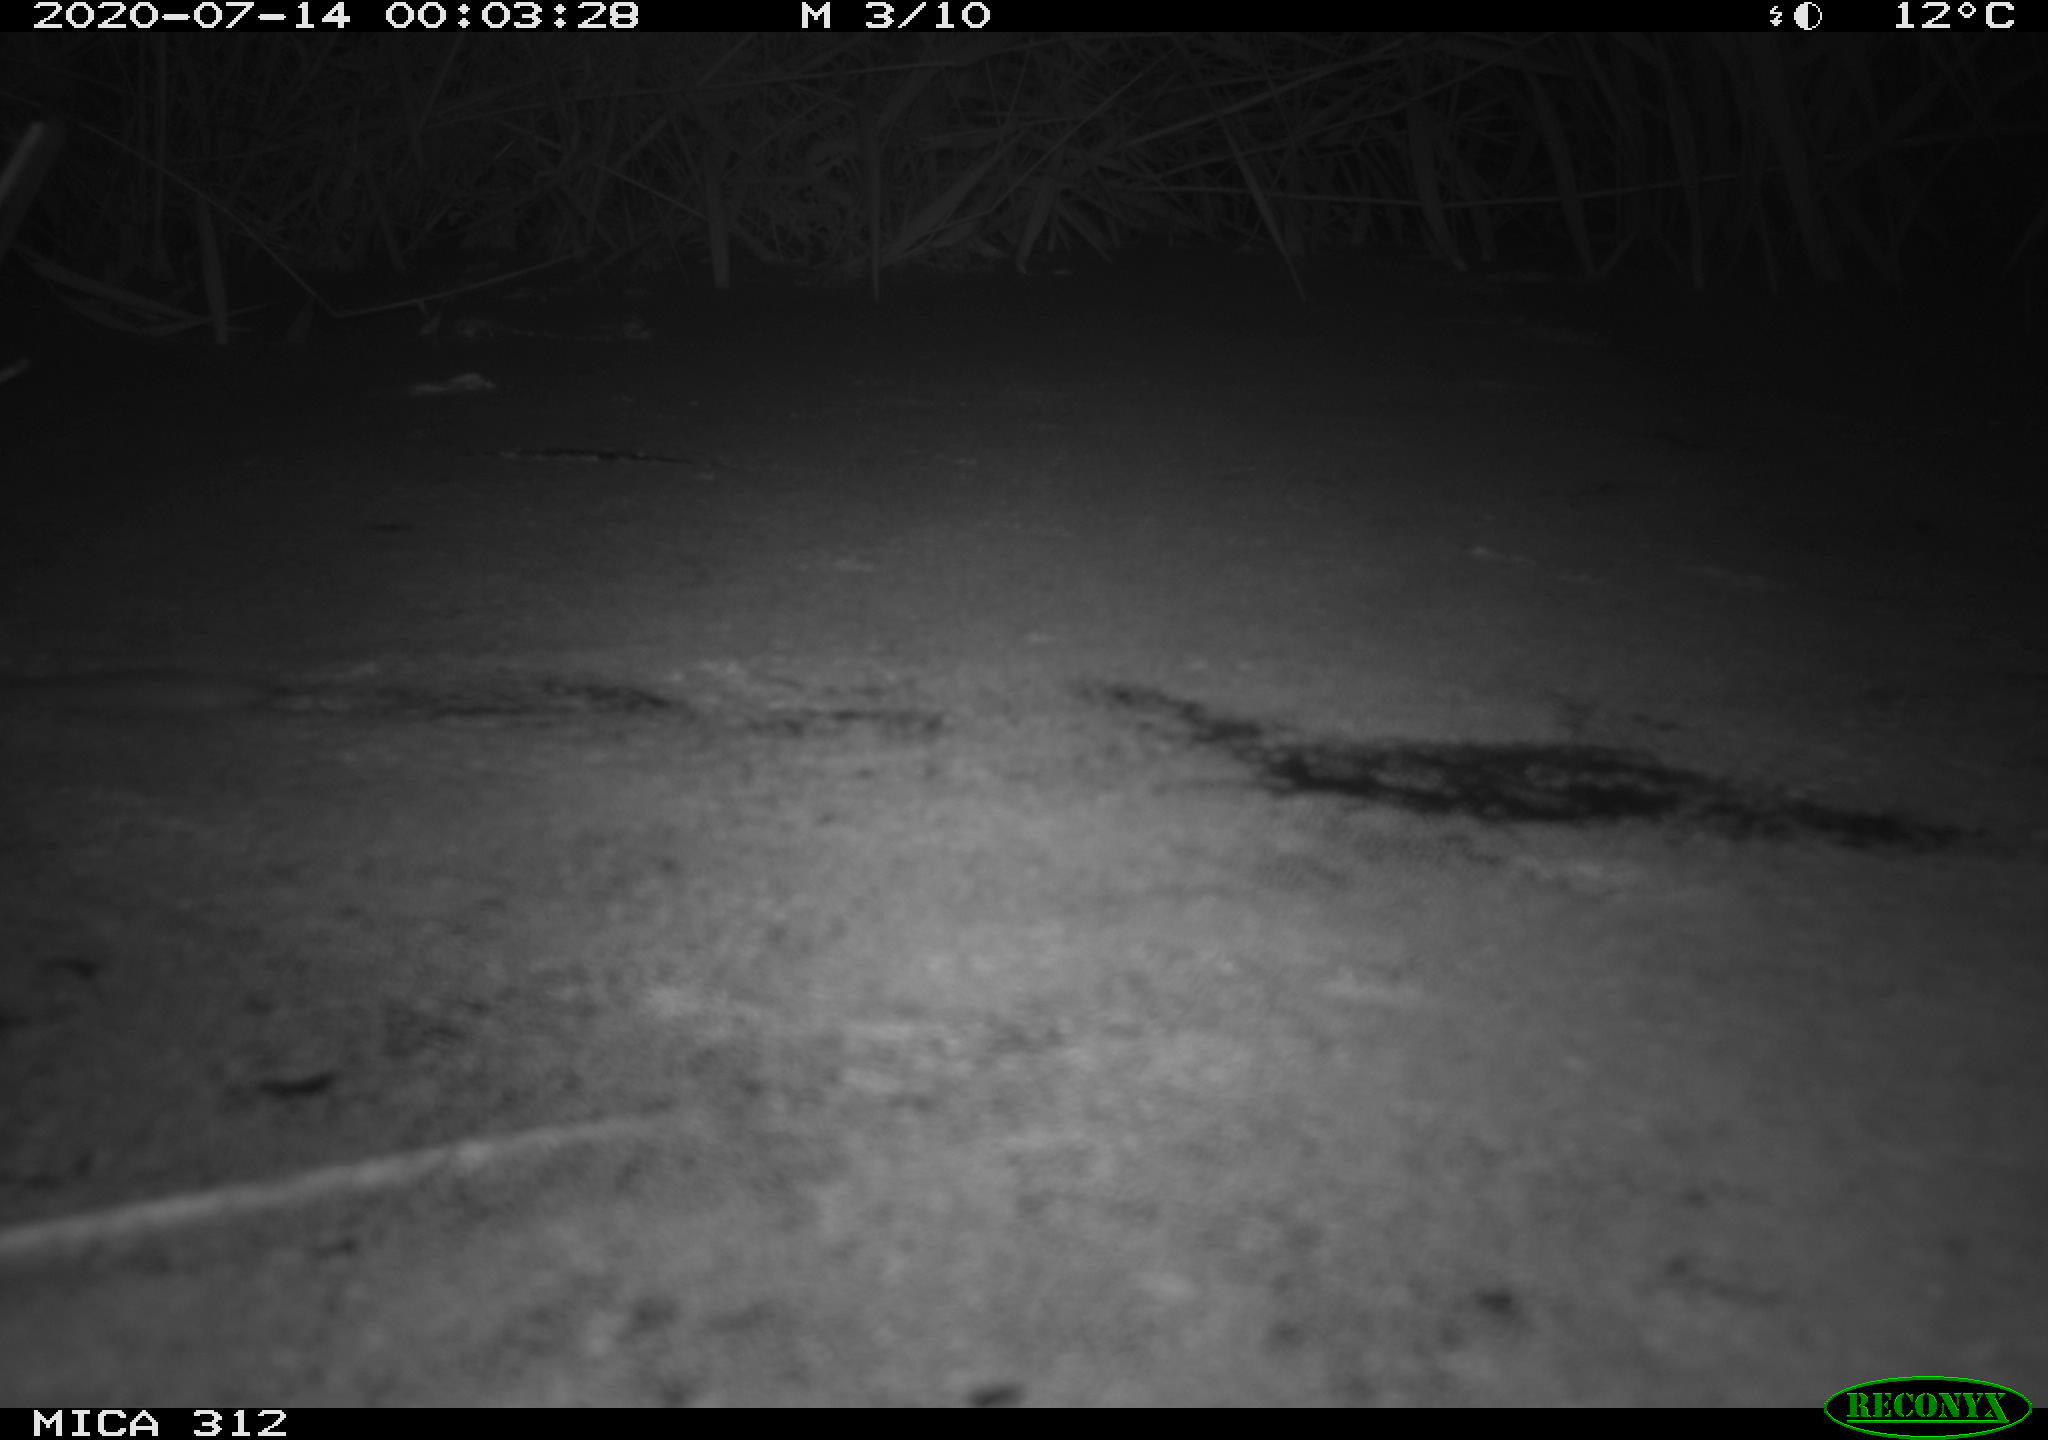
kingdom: Animalia
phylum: Chordata
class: Mammalia
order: Rodentia
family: Muridae
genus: Rattus
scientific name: Rattus norvegicus
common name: Brown rat
